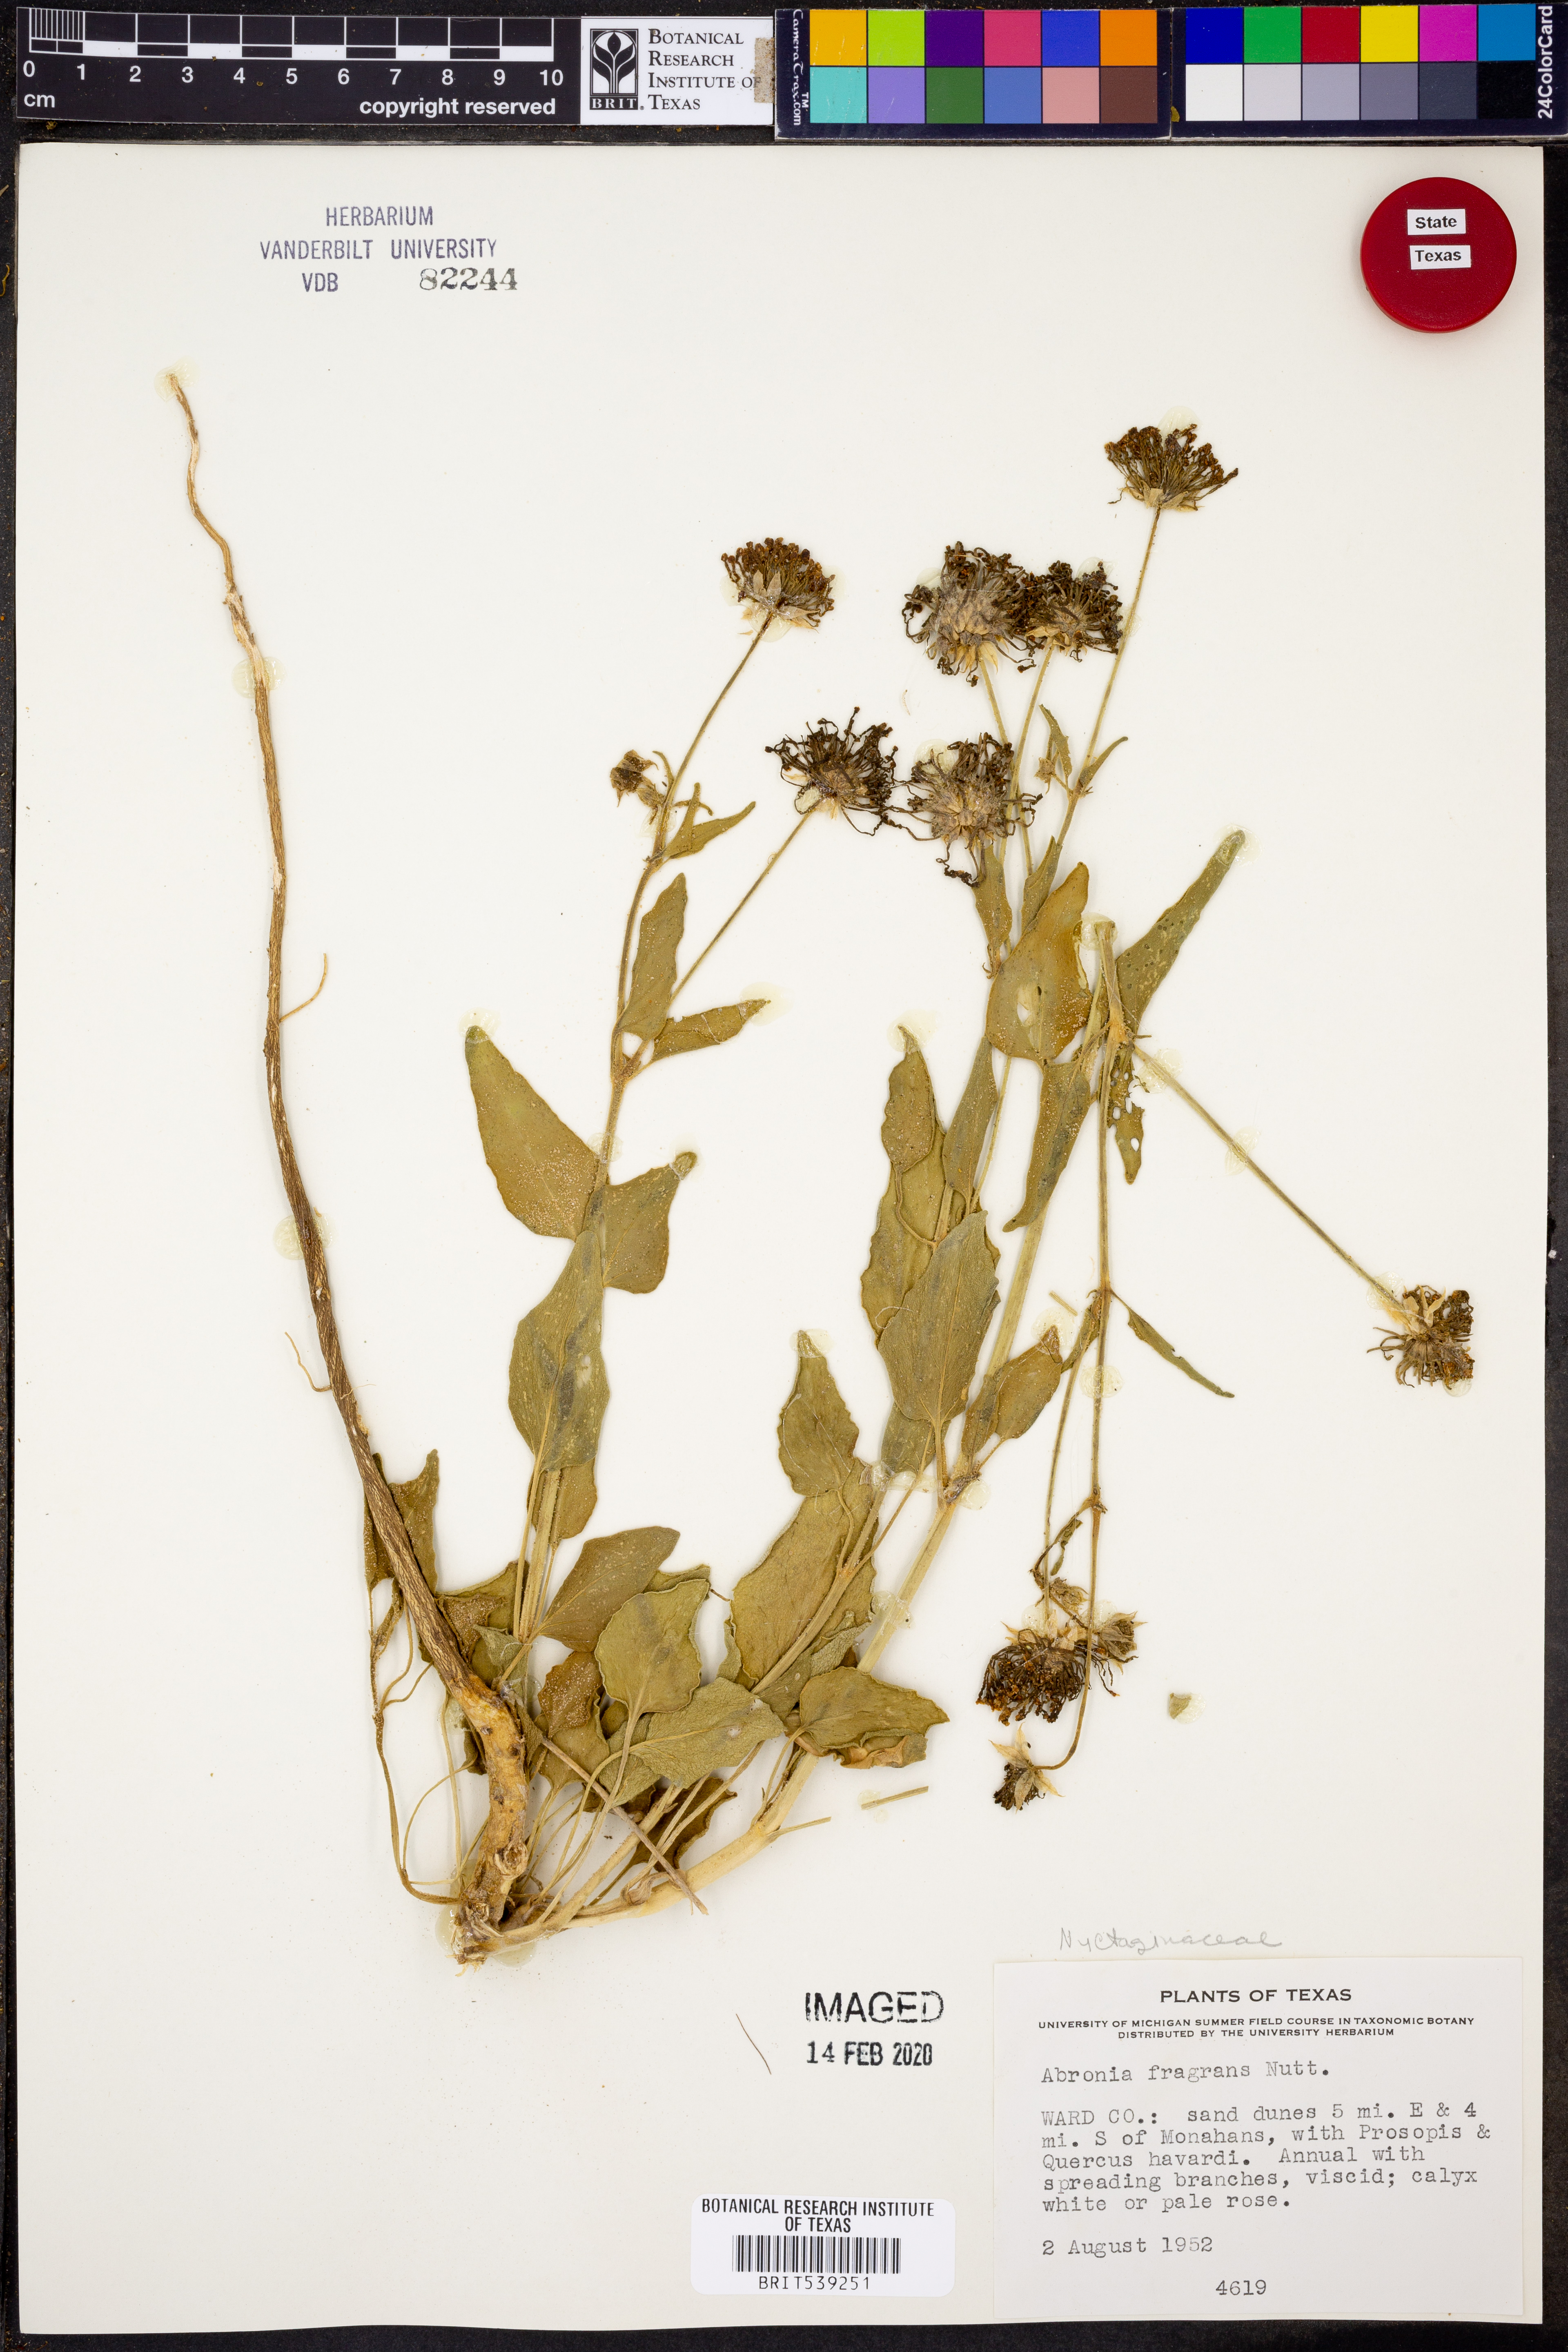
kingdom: Plantae
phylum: Tracheophyta
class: Magnoliopsida
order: Caryophyllales
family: Nyctaginaceae
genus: Abronia
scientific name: Abronia fragrans
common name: Fragrant sand-verbena
